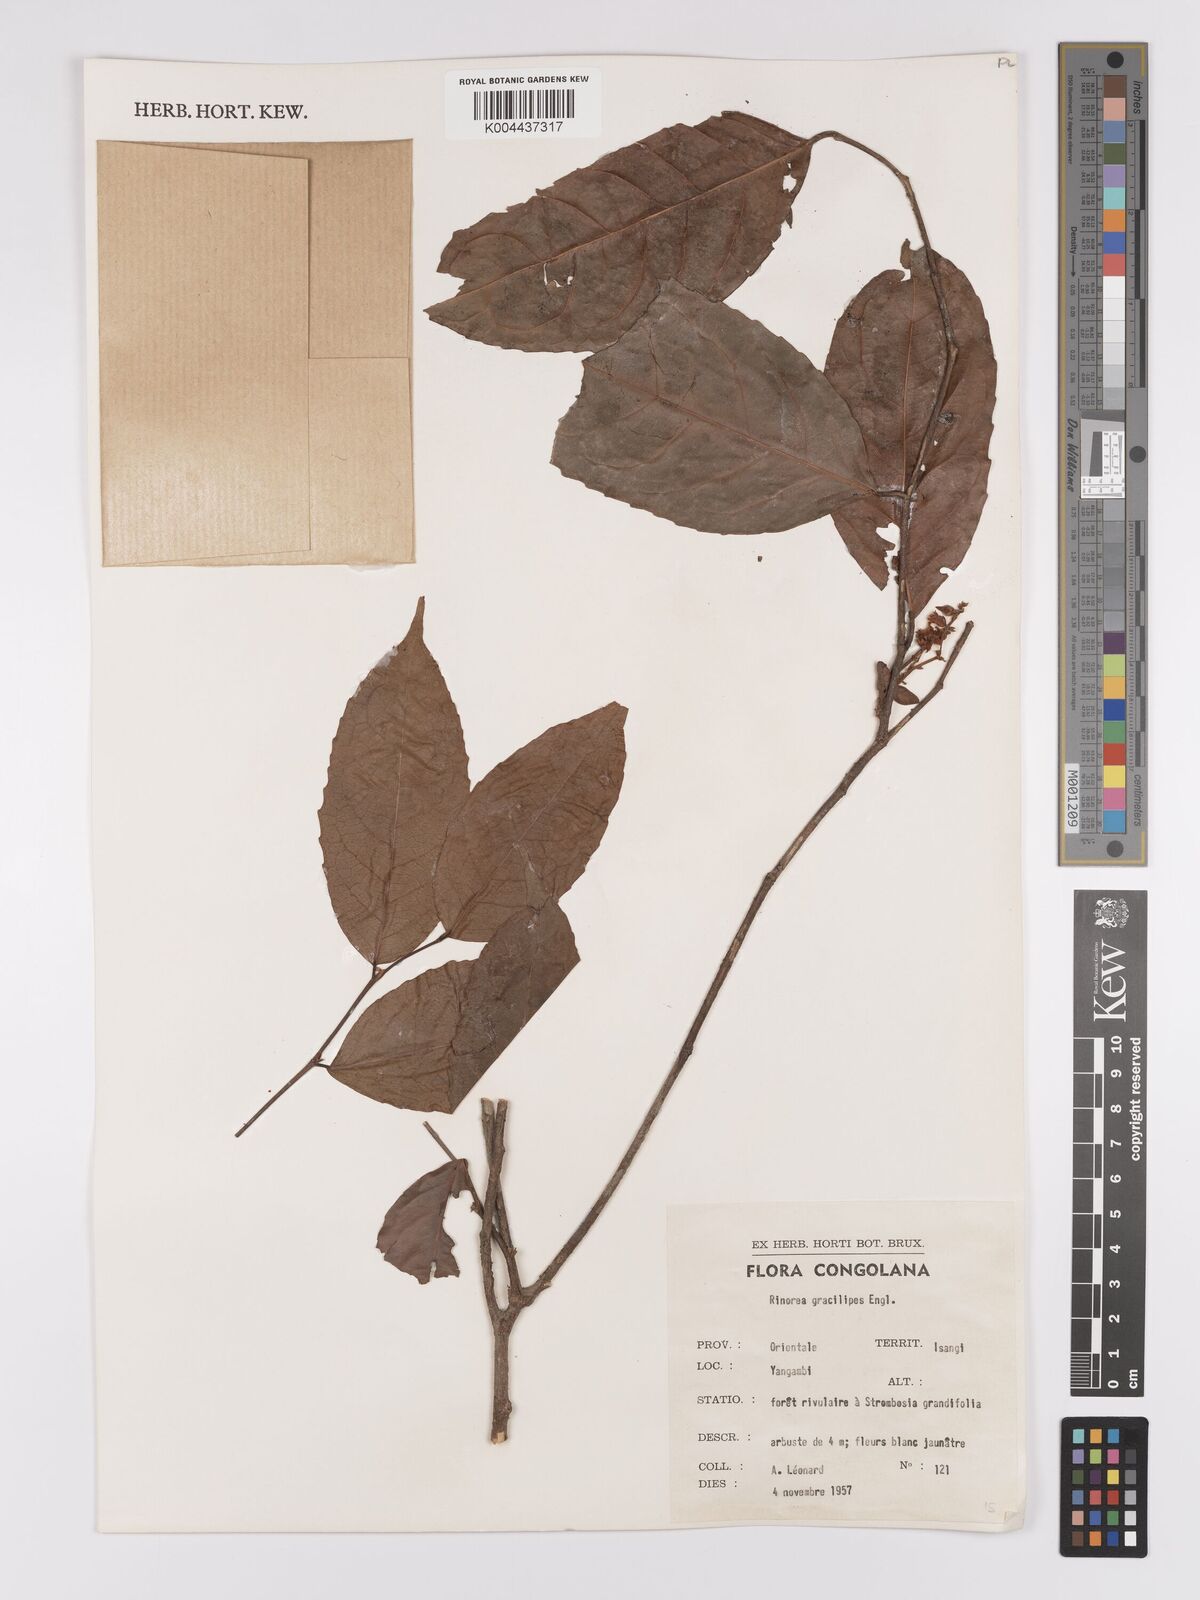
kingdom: Plantae
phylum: Tracheophyta
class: Magnoliopsida
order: Malpighiales
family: Violaceae
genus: Rinorea
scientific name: Rinorea angustifolia
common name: White violet-bush
